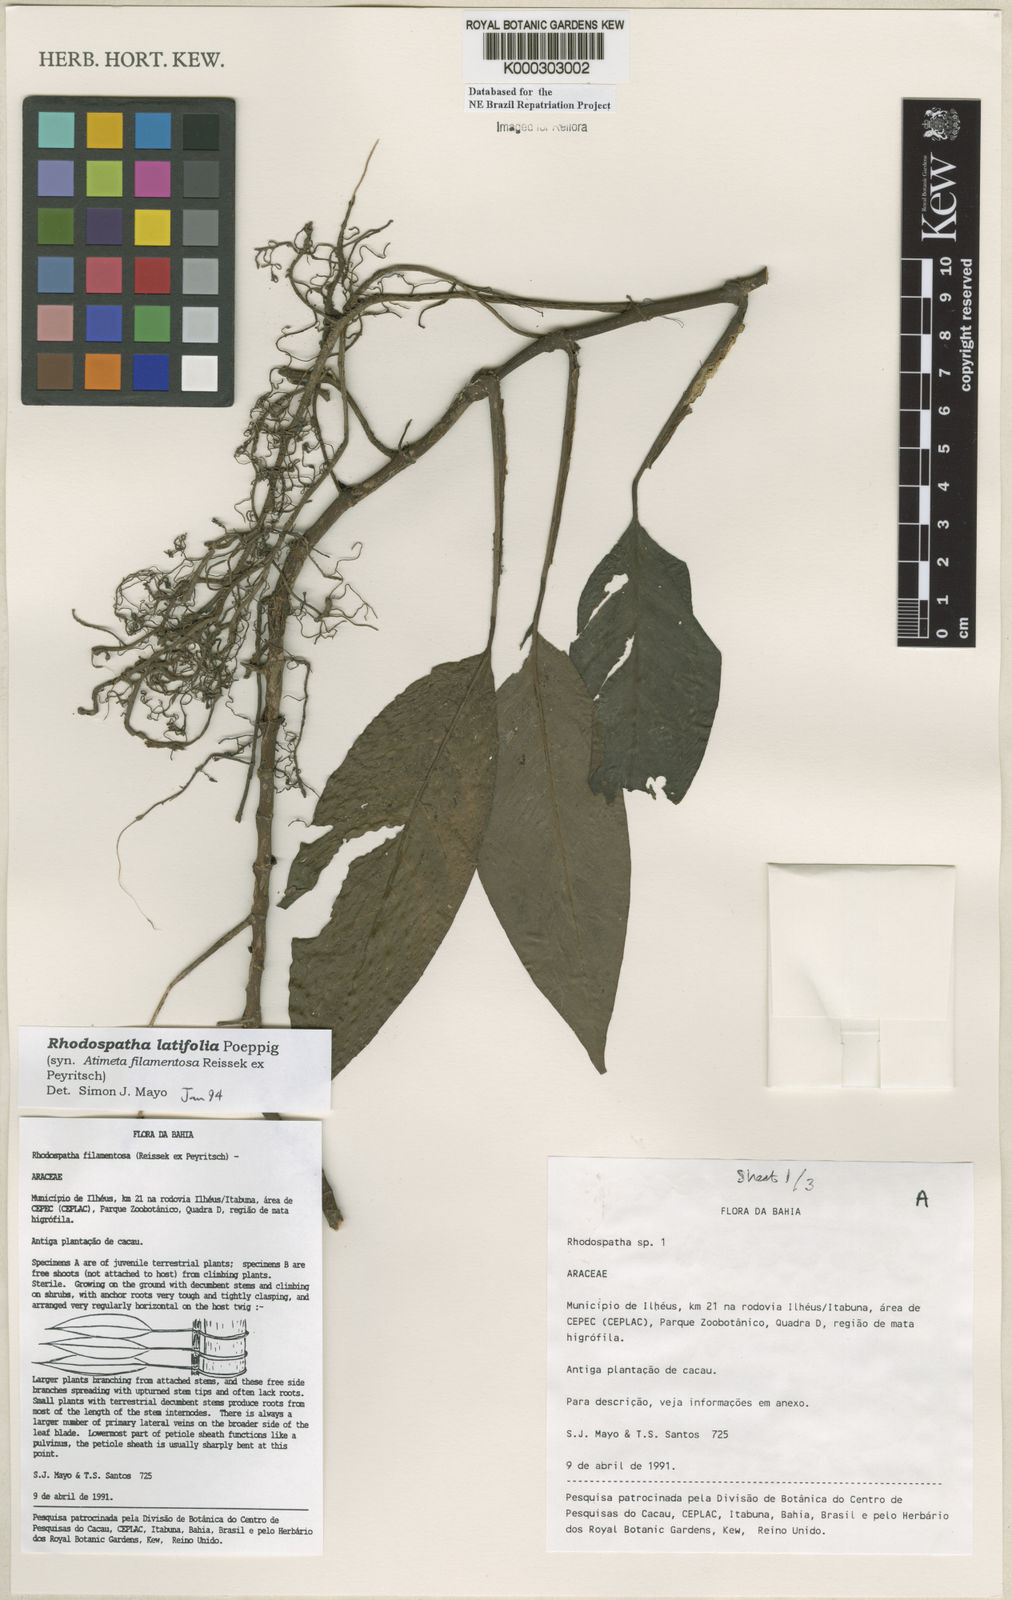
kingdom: Plantae
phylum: Tracheophyta
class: Liliopsida
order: Alismatales
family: Araceae
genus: Rhodospatha
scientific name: Rhodospatha latifolia
